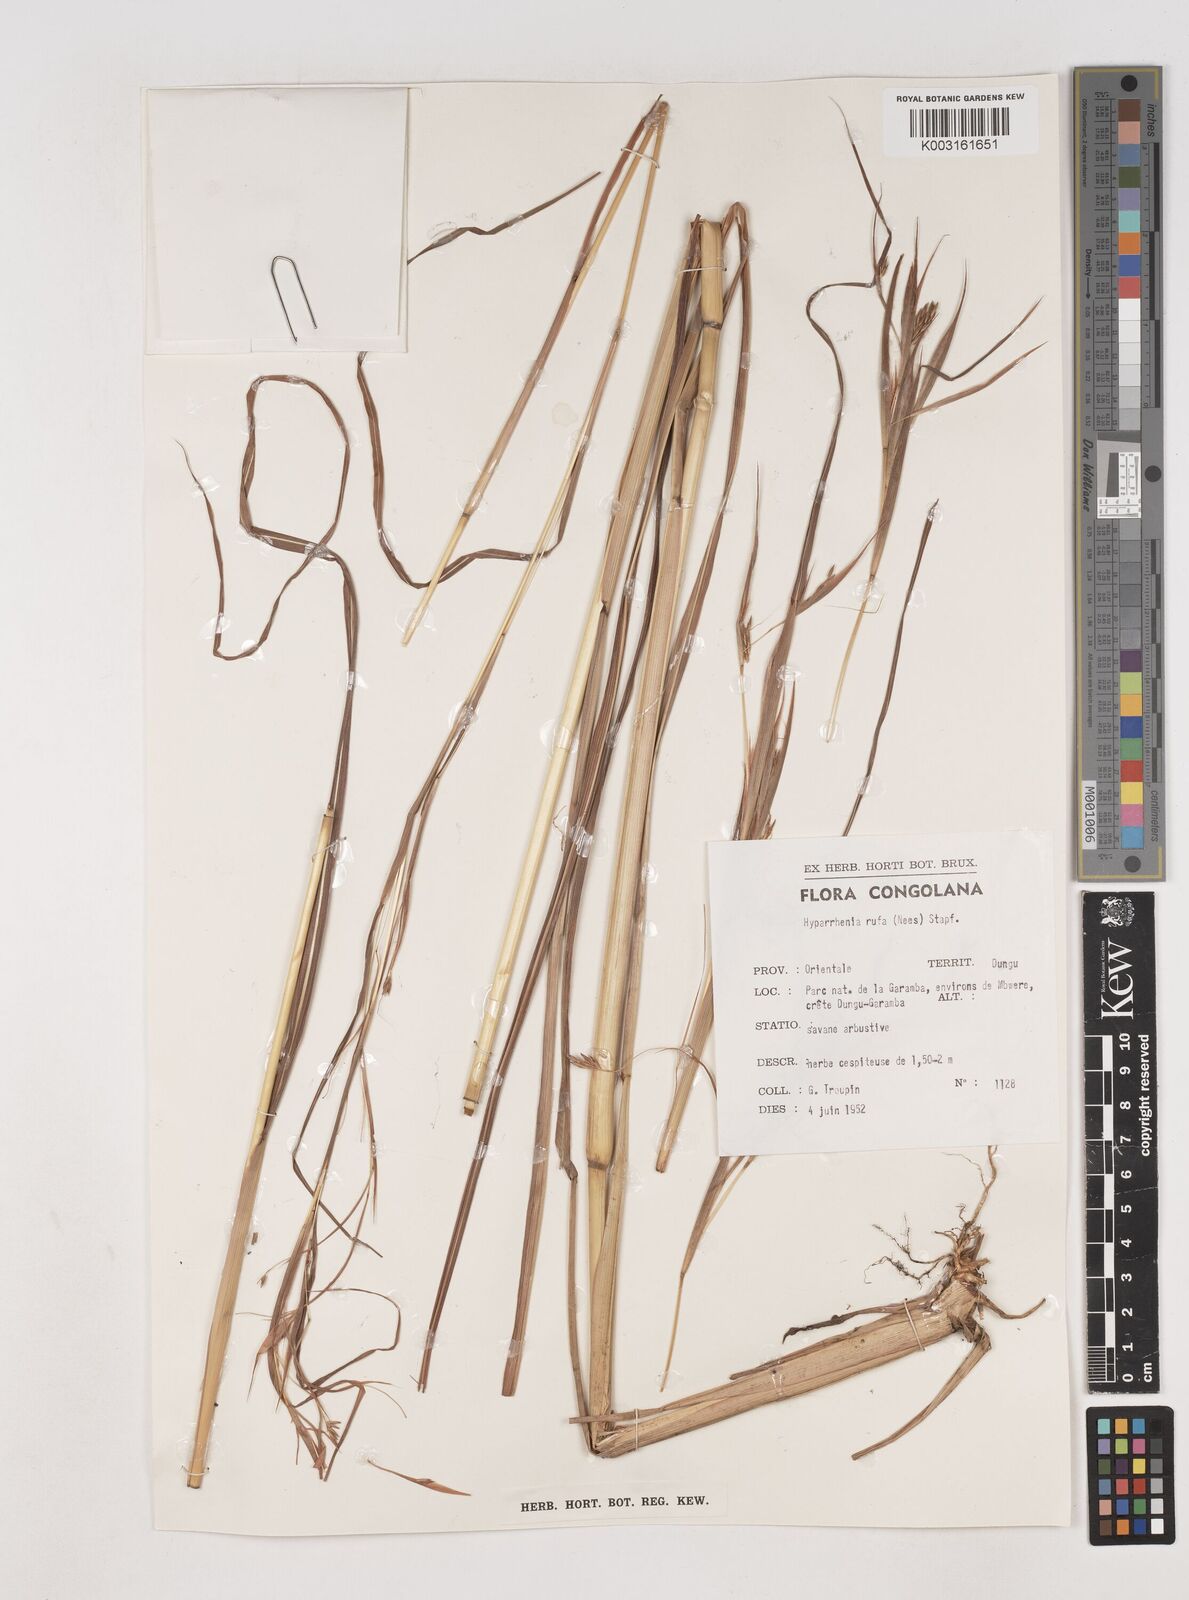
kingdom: Plantae
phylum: Tracheophyta
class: Liliopsida
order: Poales
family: Poaceae
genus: Hyparrhenia
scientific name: Hyparrhenia rufa
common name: Jaraguagrass
